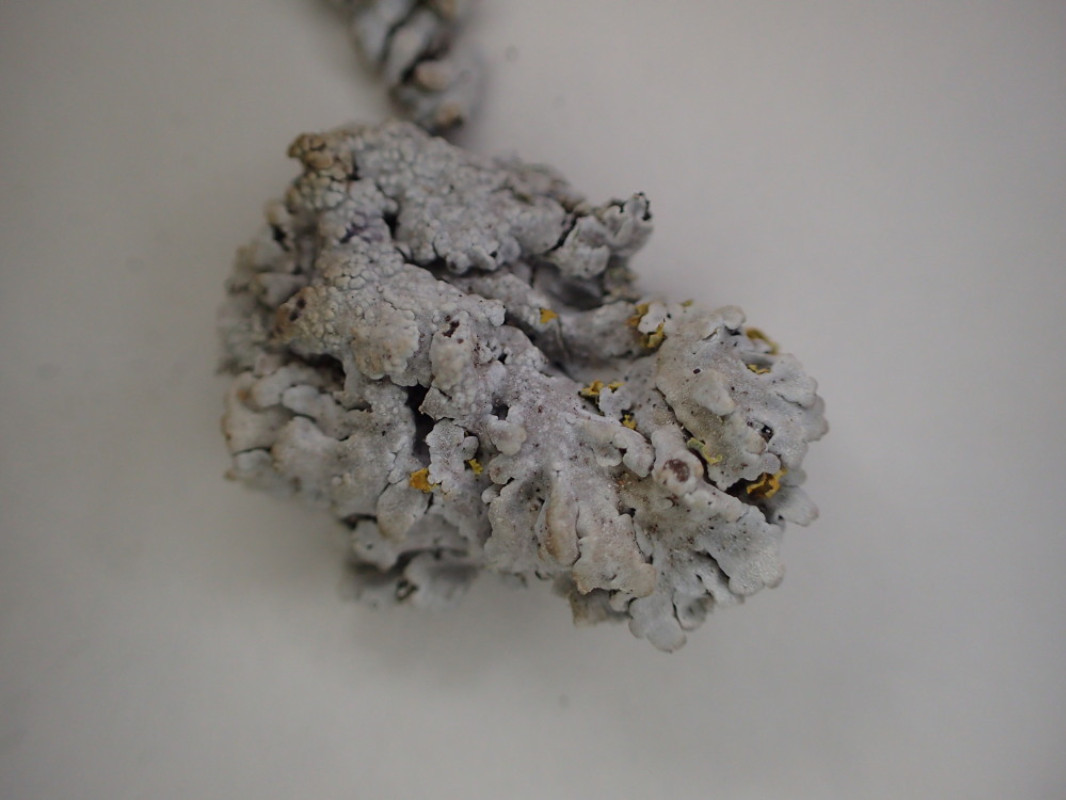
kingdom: Fungi
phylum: Ascomycota
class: Lecanoromycetes
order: Caliciales
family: Physciaceae
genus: Physconia
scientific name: Physconia distorta
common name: pudret dugrosetlav
